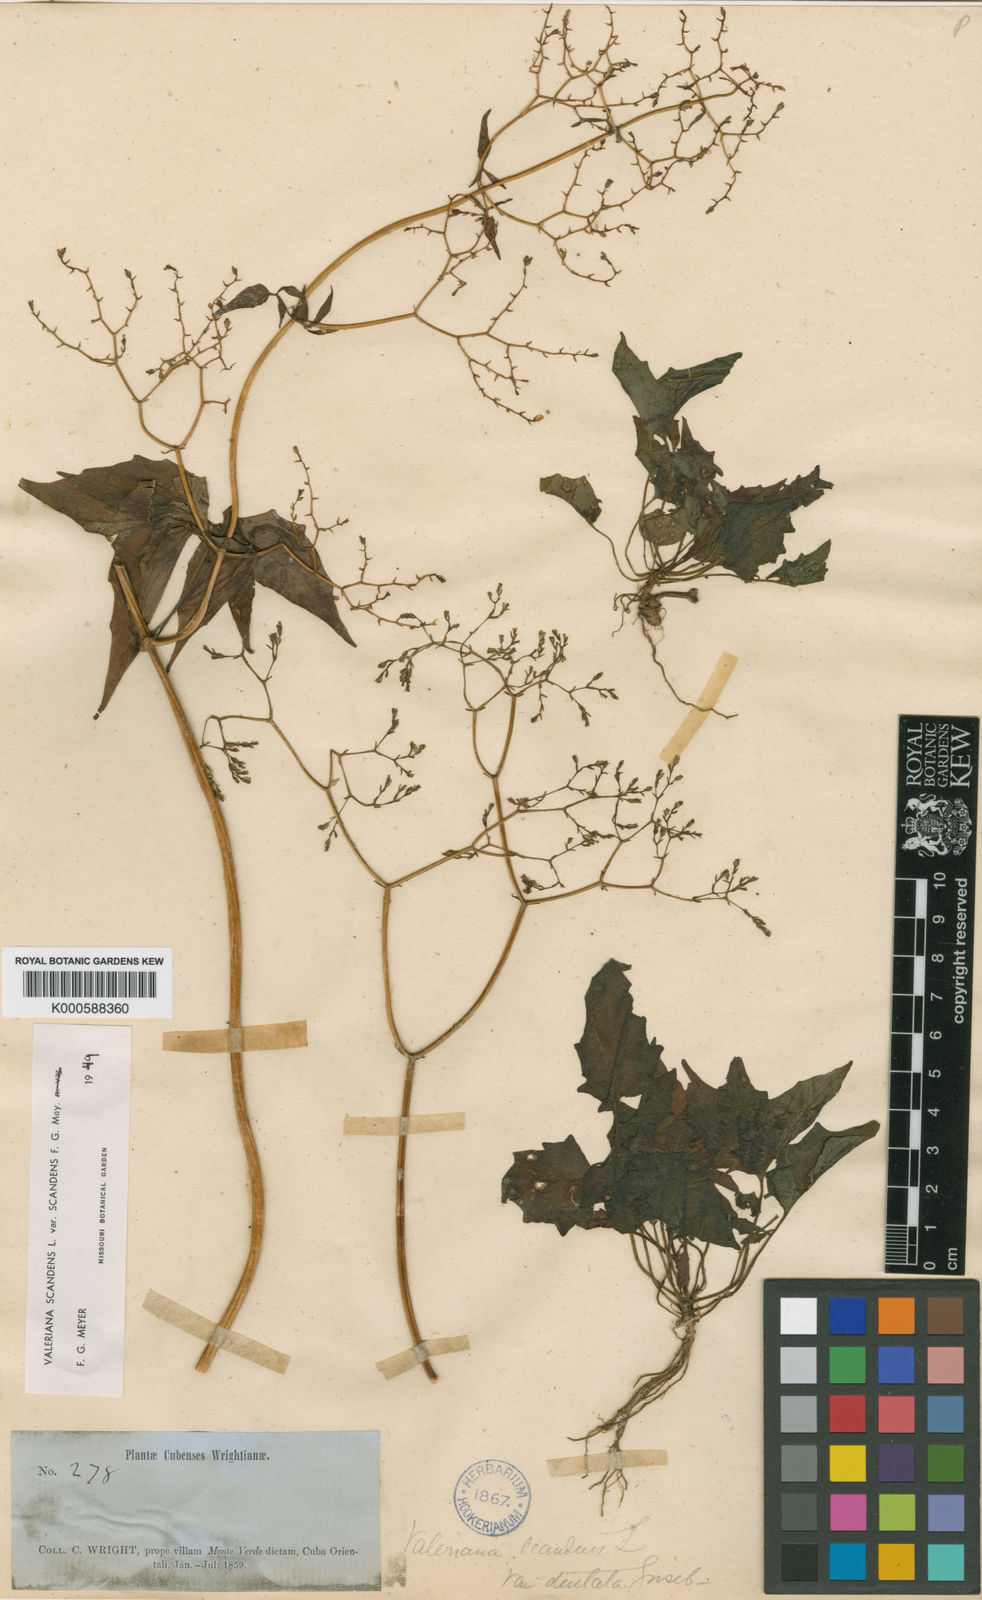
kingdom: Plantae
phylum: Tracheophyta
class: Magnoliopsida
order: Dipsacales
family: Caprifoliaceae
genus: Valeriana
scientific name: Valeriana scandens
